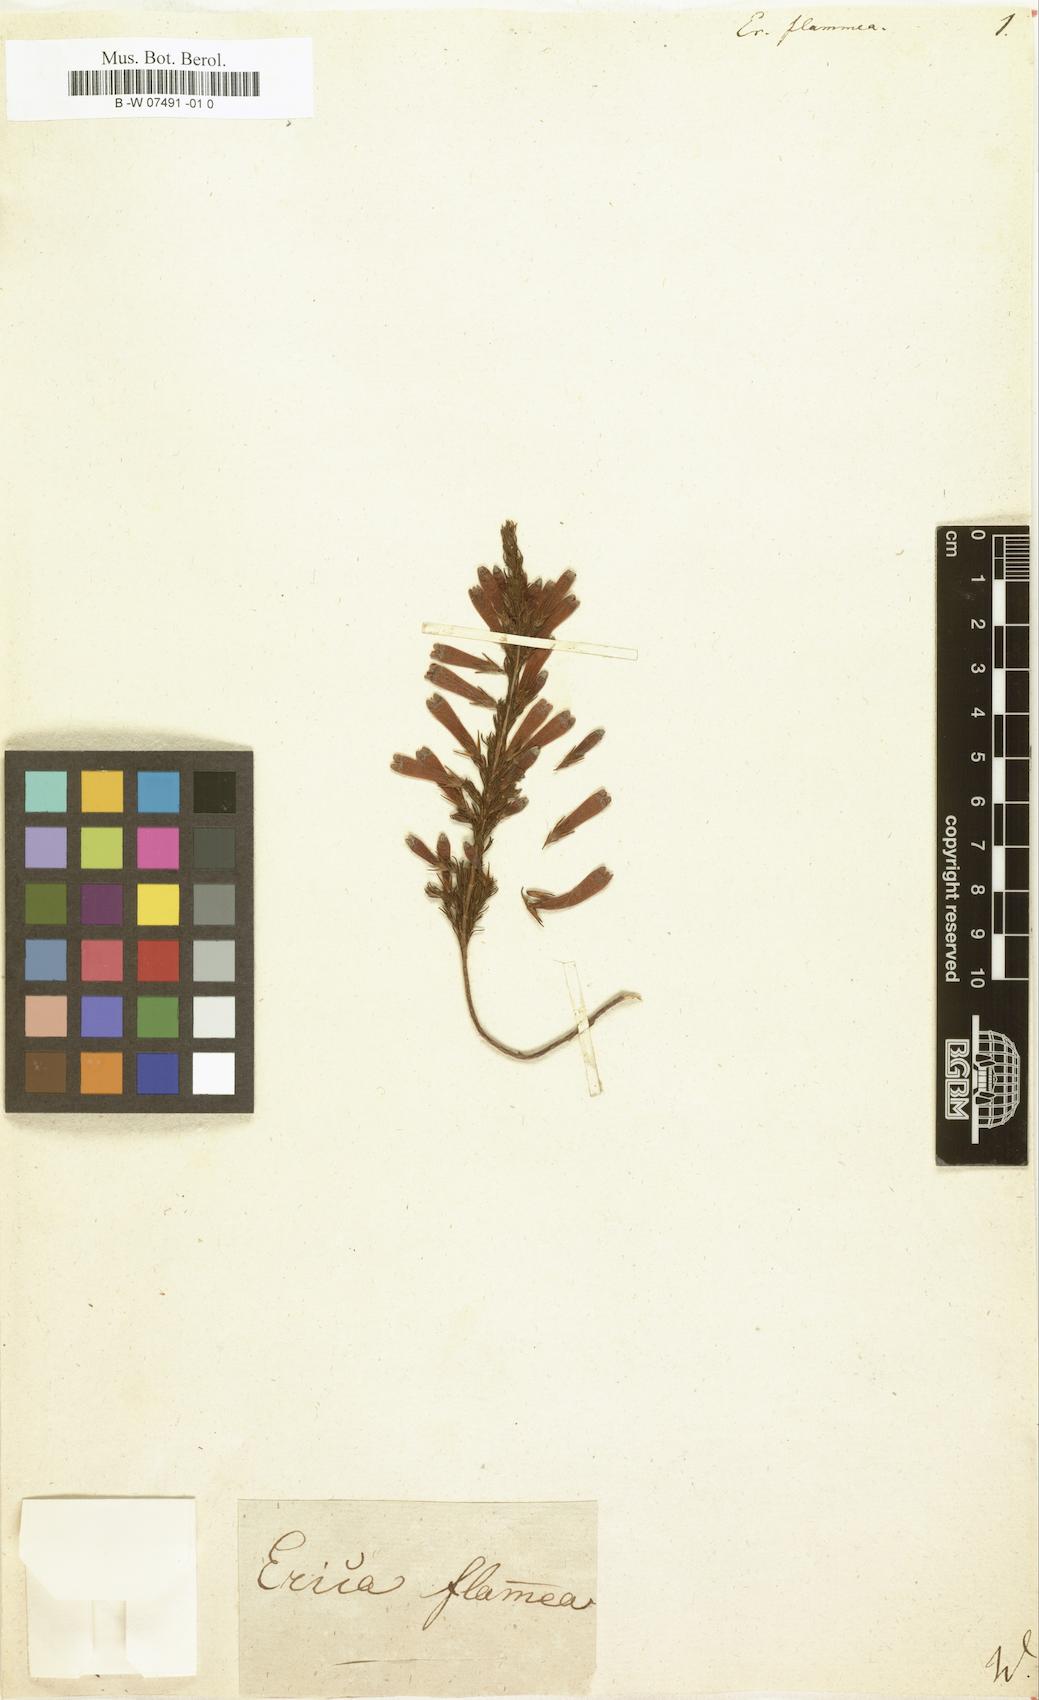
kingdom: Plantae
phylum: Tracheophyta
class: Magnoliopsida
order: Ericales
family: Ericaceae
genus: Erica
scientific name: Erica bibax
